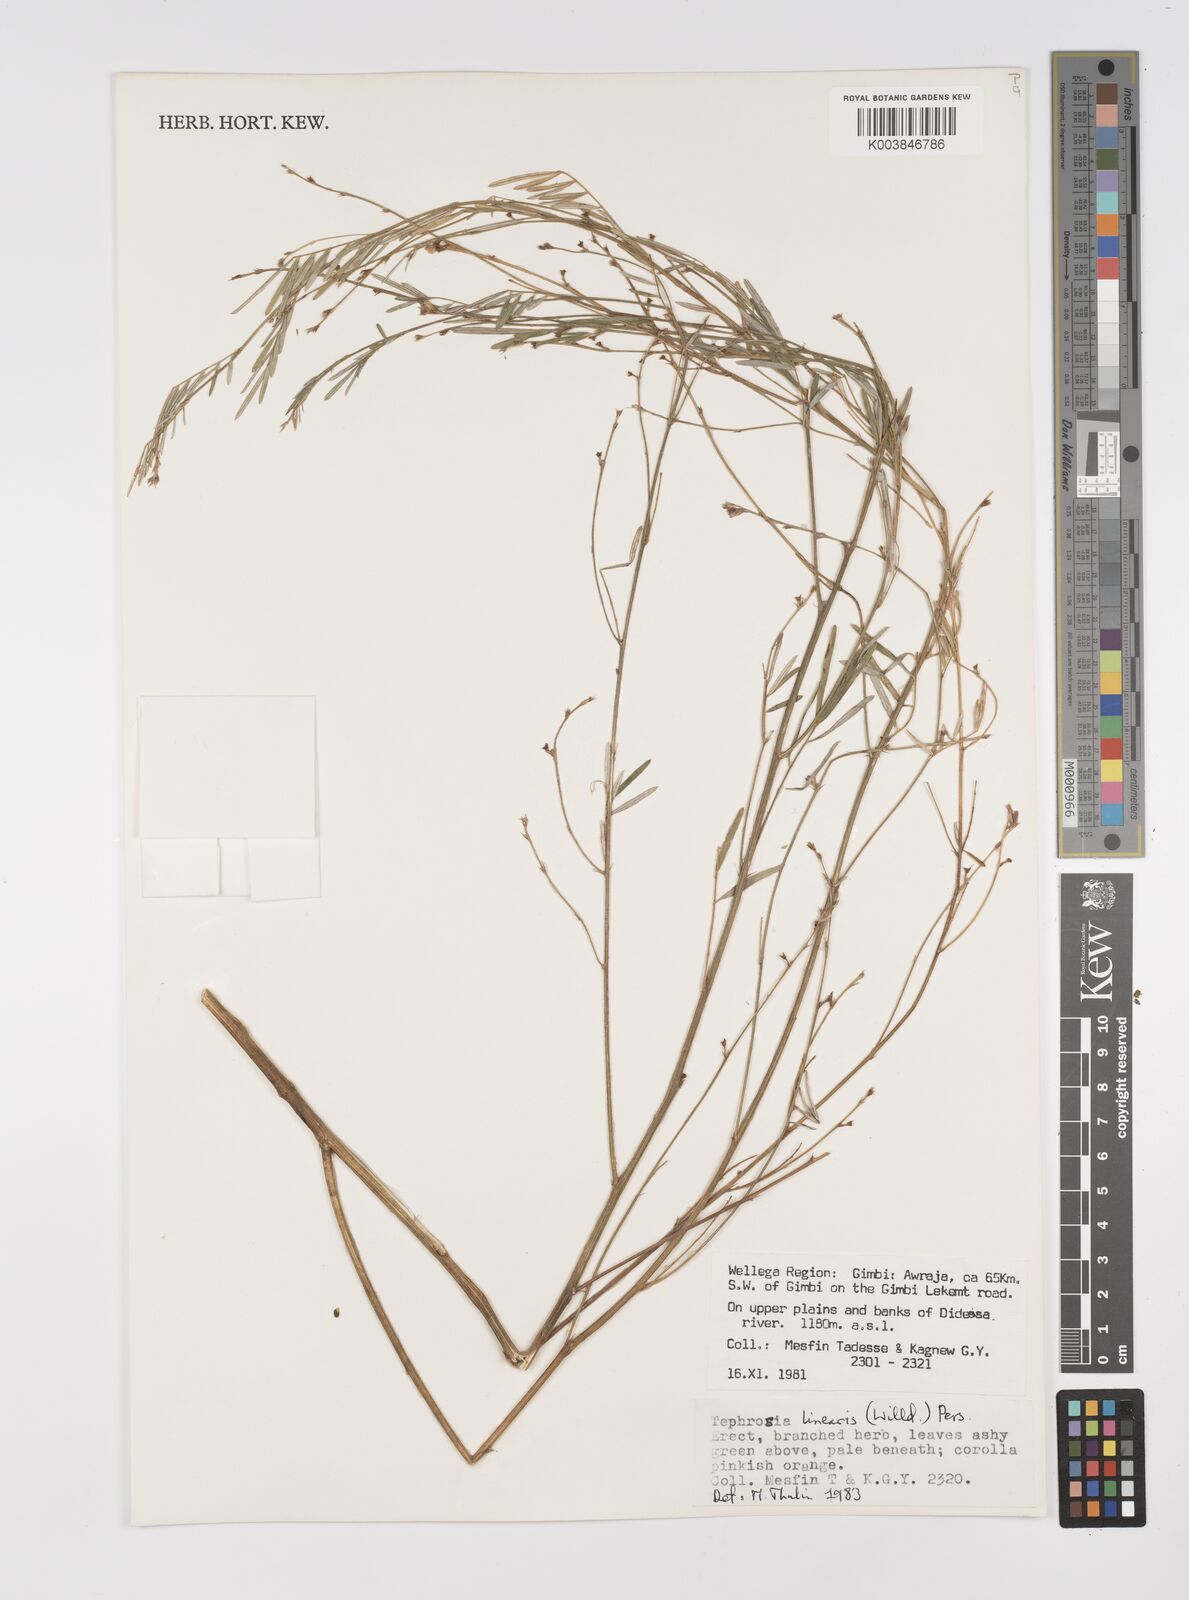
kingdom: Plantae
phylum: Tracheophyta
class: Magnoliopsida
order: Fabales
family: Fabaceae
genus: Tephrosia
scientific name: Tephrosia linearis
